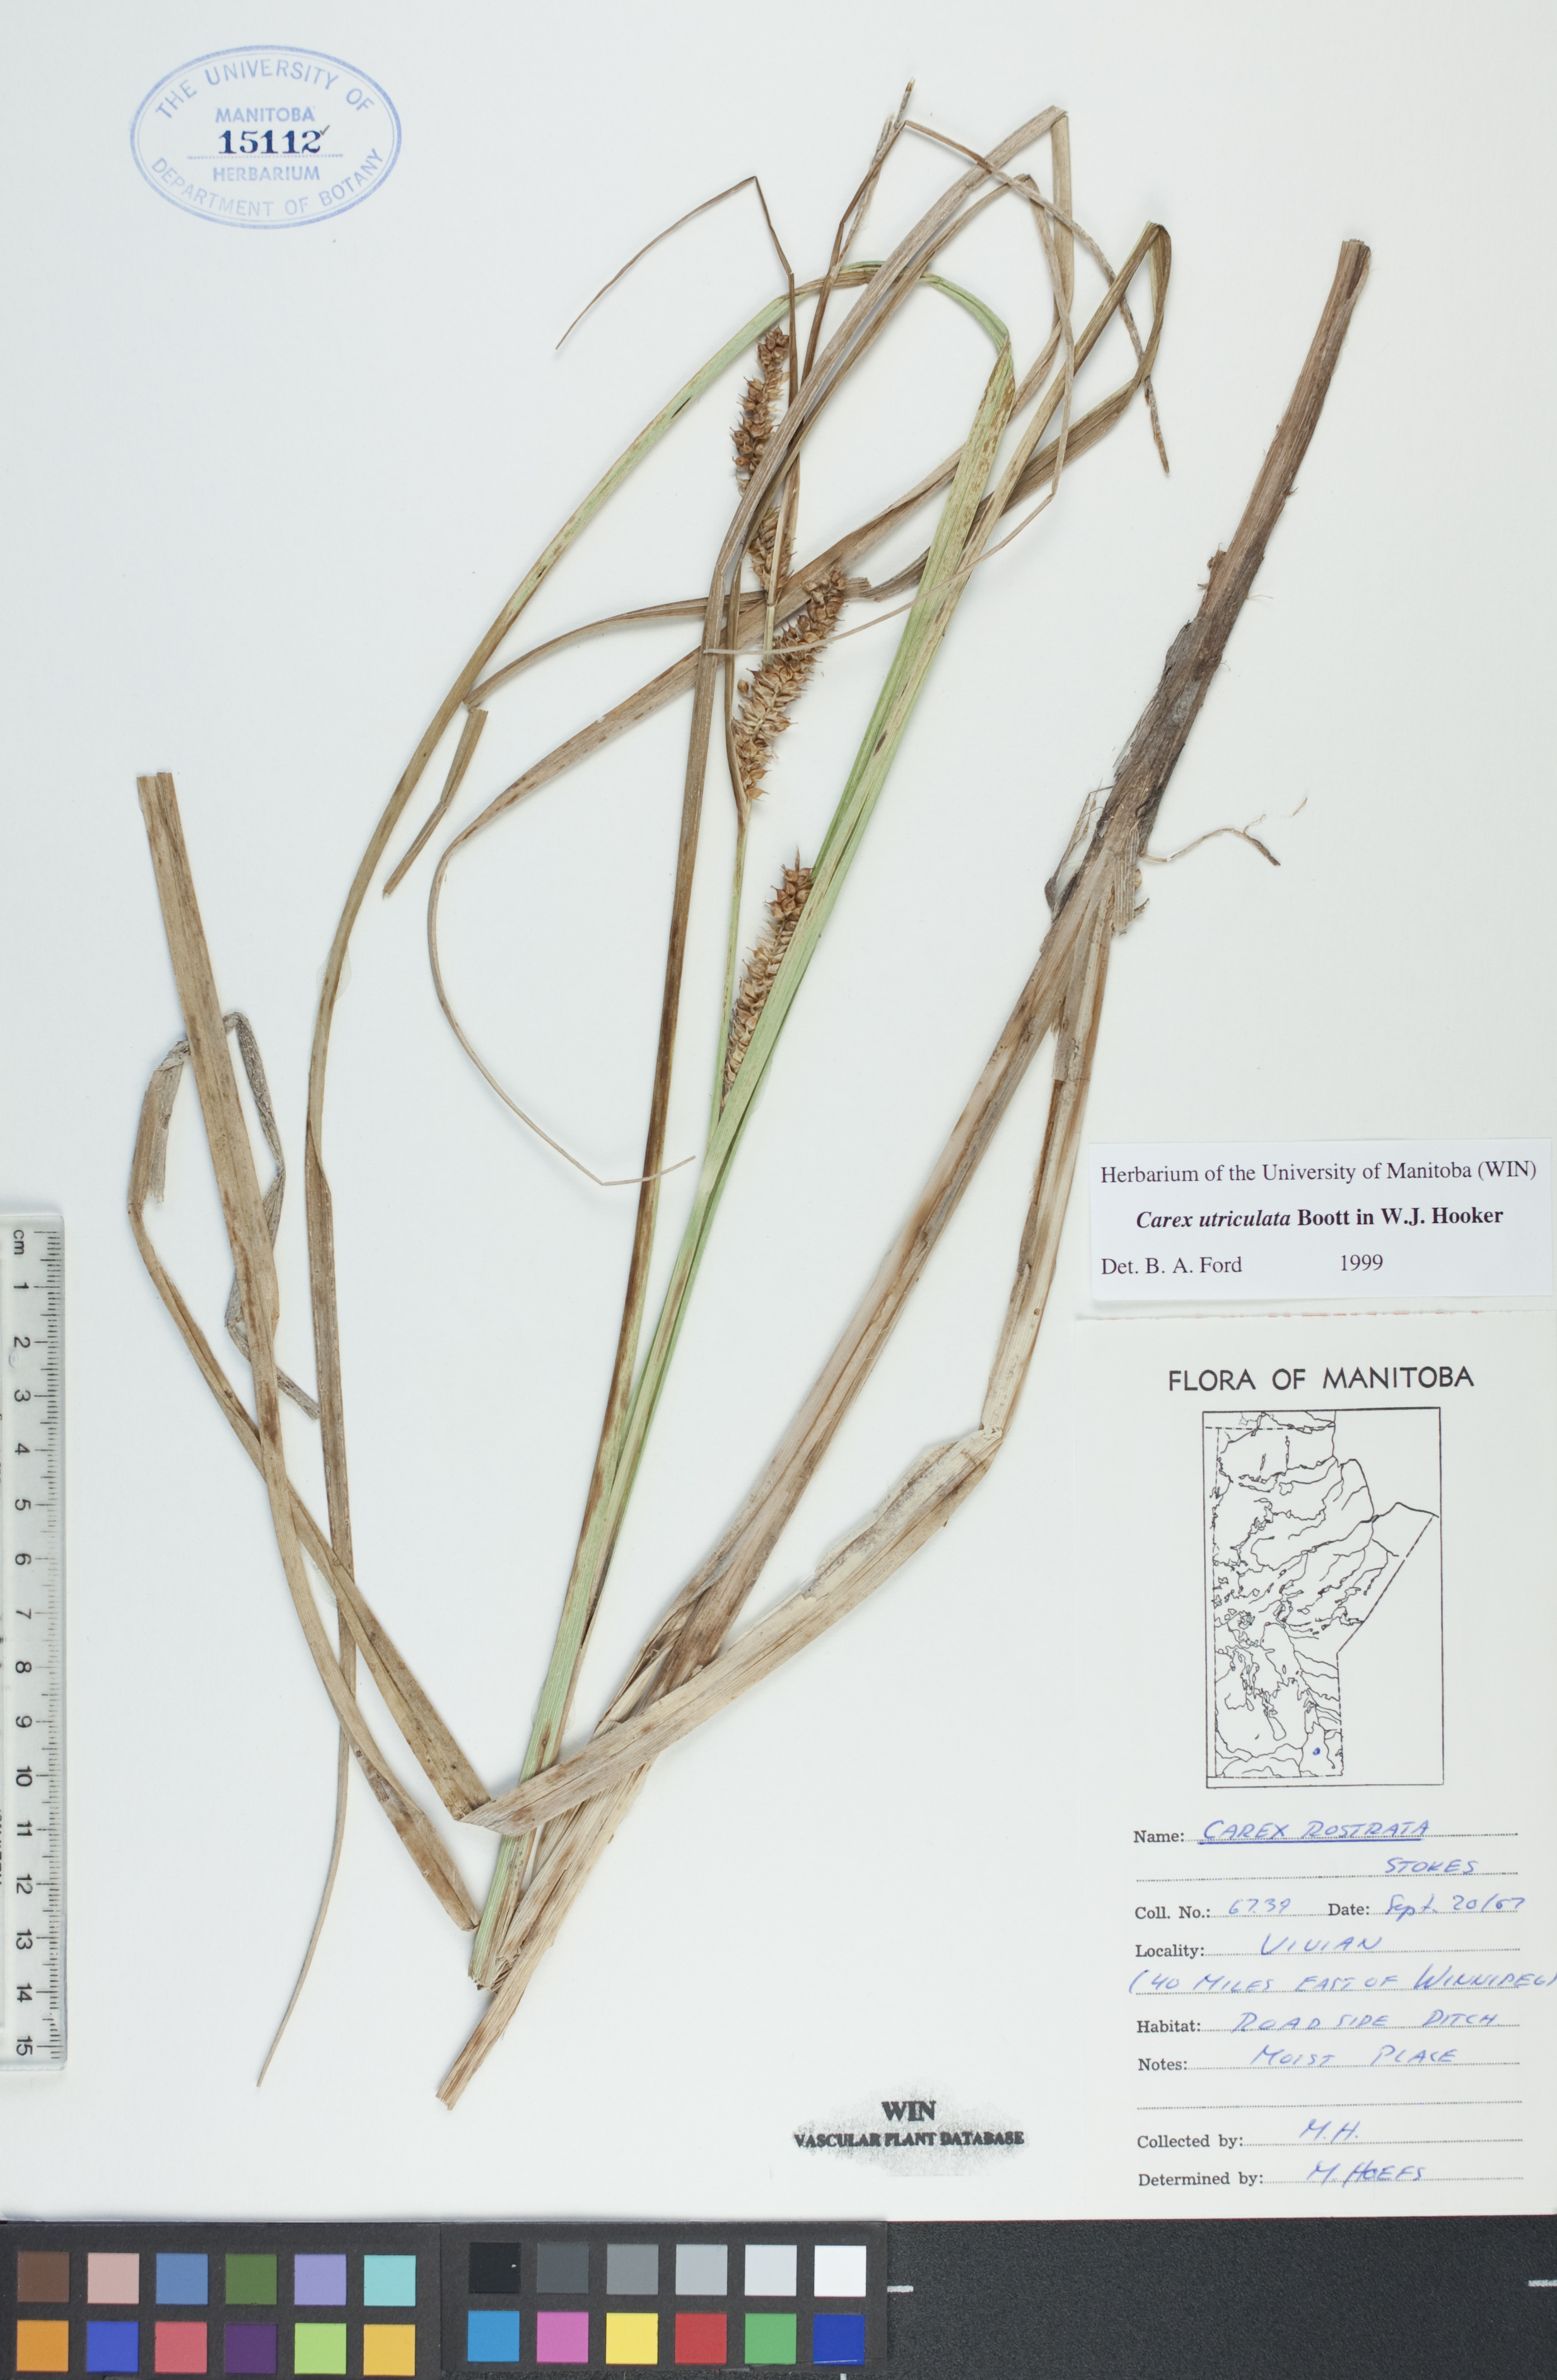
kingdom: Plantae
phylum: Tracheophyta
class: Liliopsida
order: Poales
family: Cyperaceae
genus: Carex
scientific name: Carex utriculata
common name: Beaked sedge
